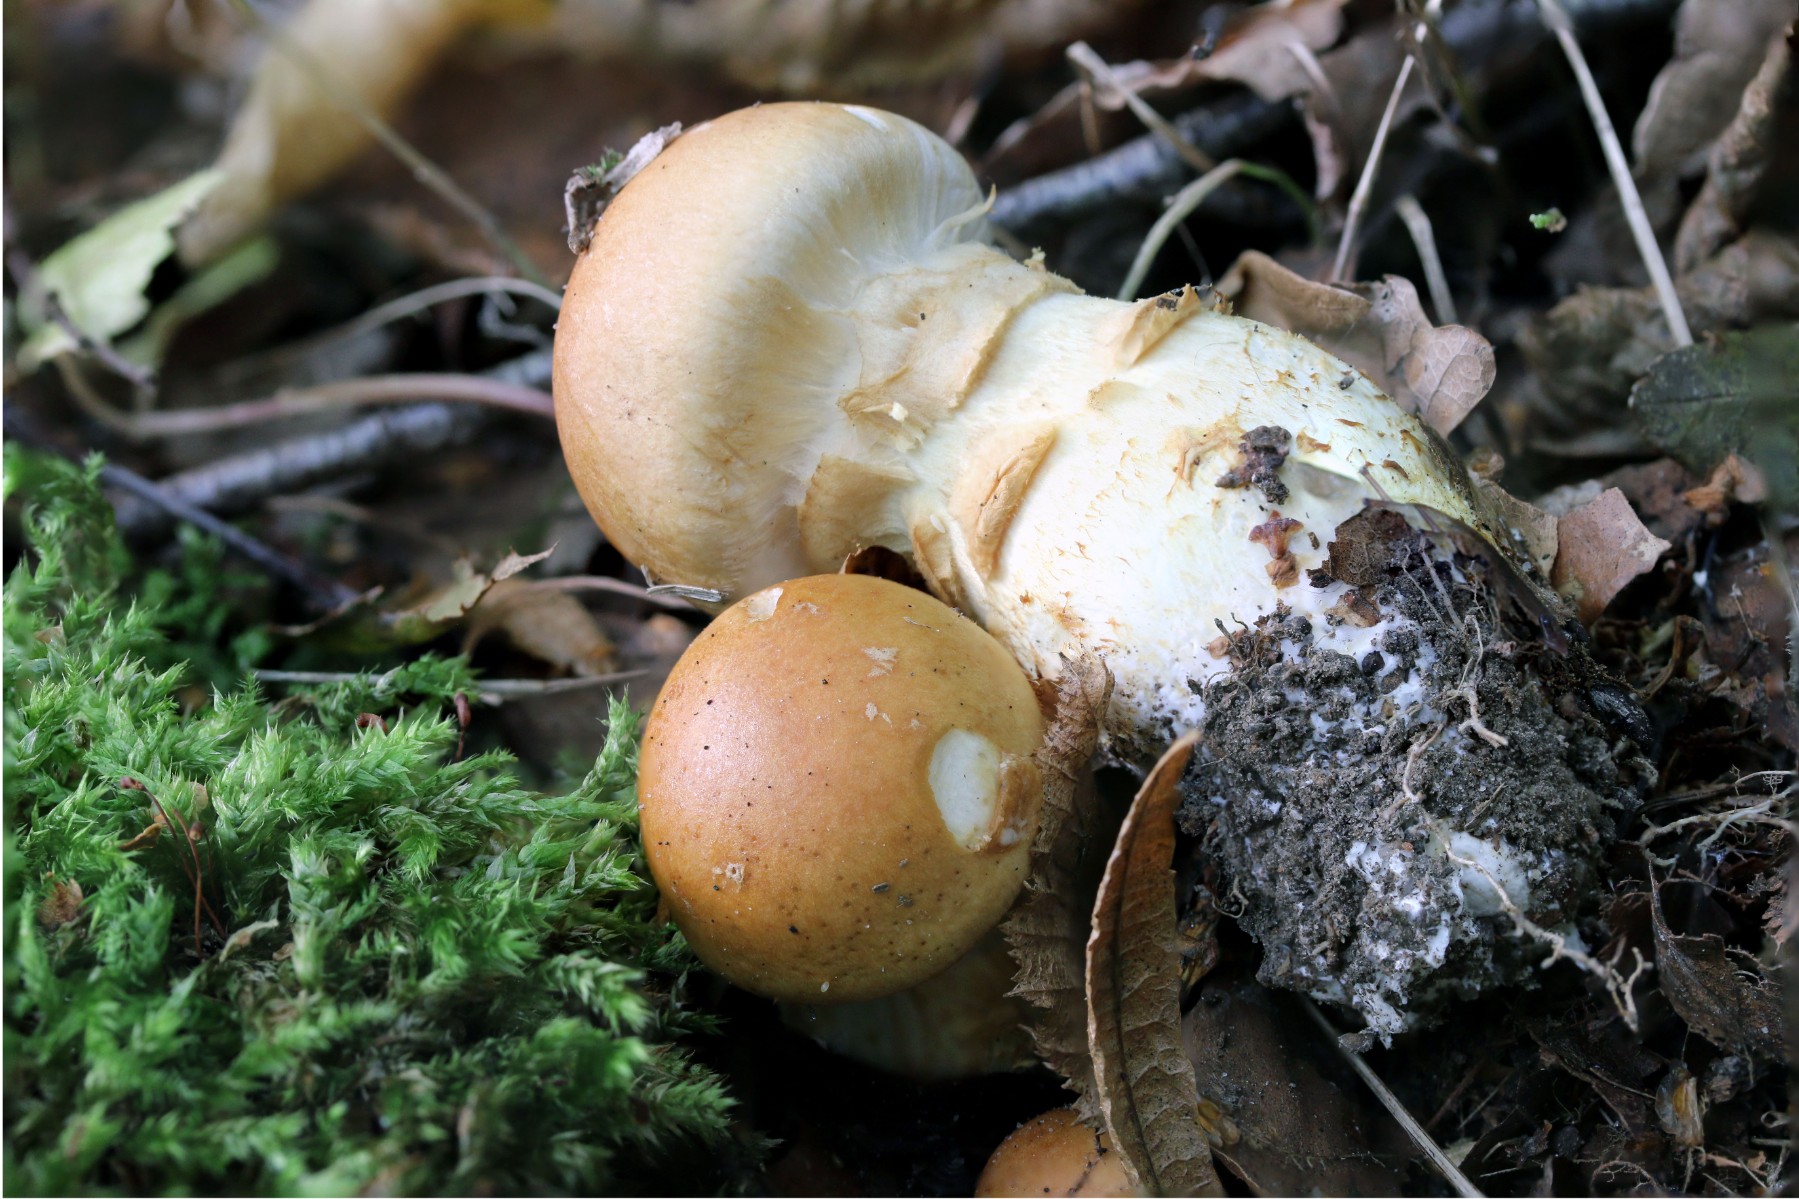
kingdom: Fungi
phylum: Basidiomycota
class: Agaricomycetes
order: Agaricales
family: Cortinariaceae
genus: Phlegmacium
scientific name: Phlegmacium triumphans
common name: gulbæltet slørhat
